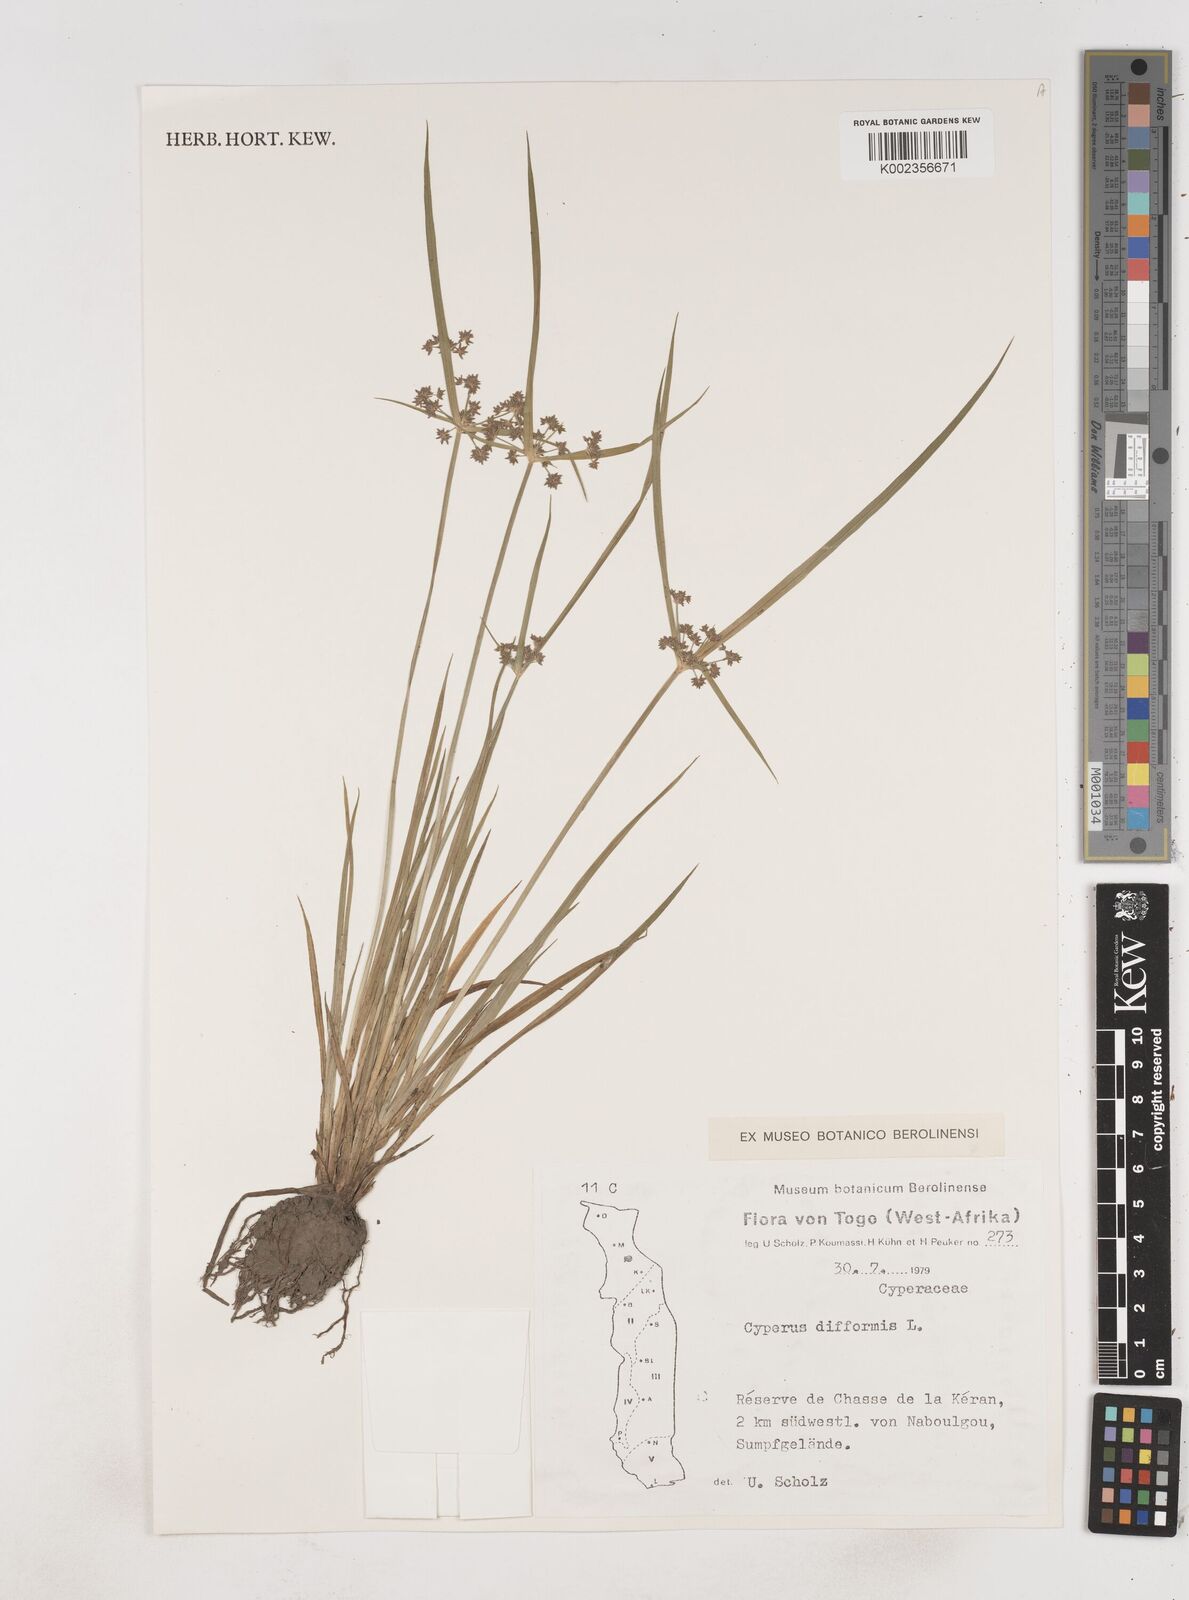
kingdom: Plantae
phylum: Tracheophyta
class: Liliopsida
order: Poales
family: Cyperaceae
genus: Cyperus
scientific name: Cyperus difformis
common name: Variable flatsedge
